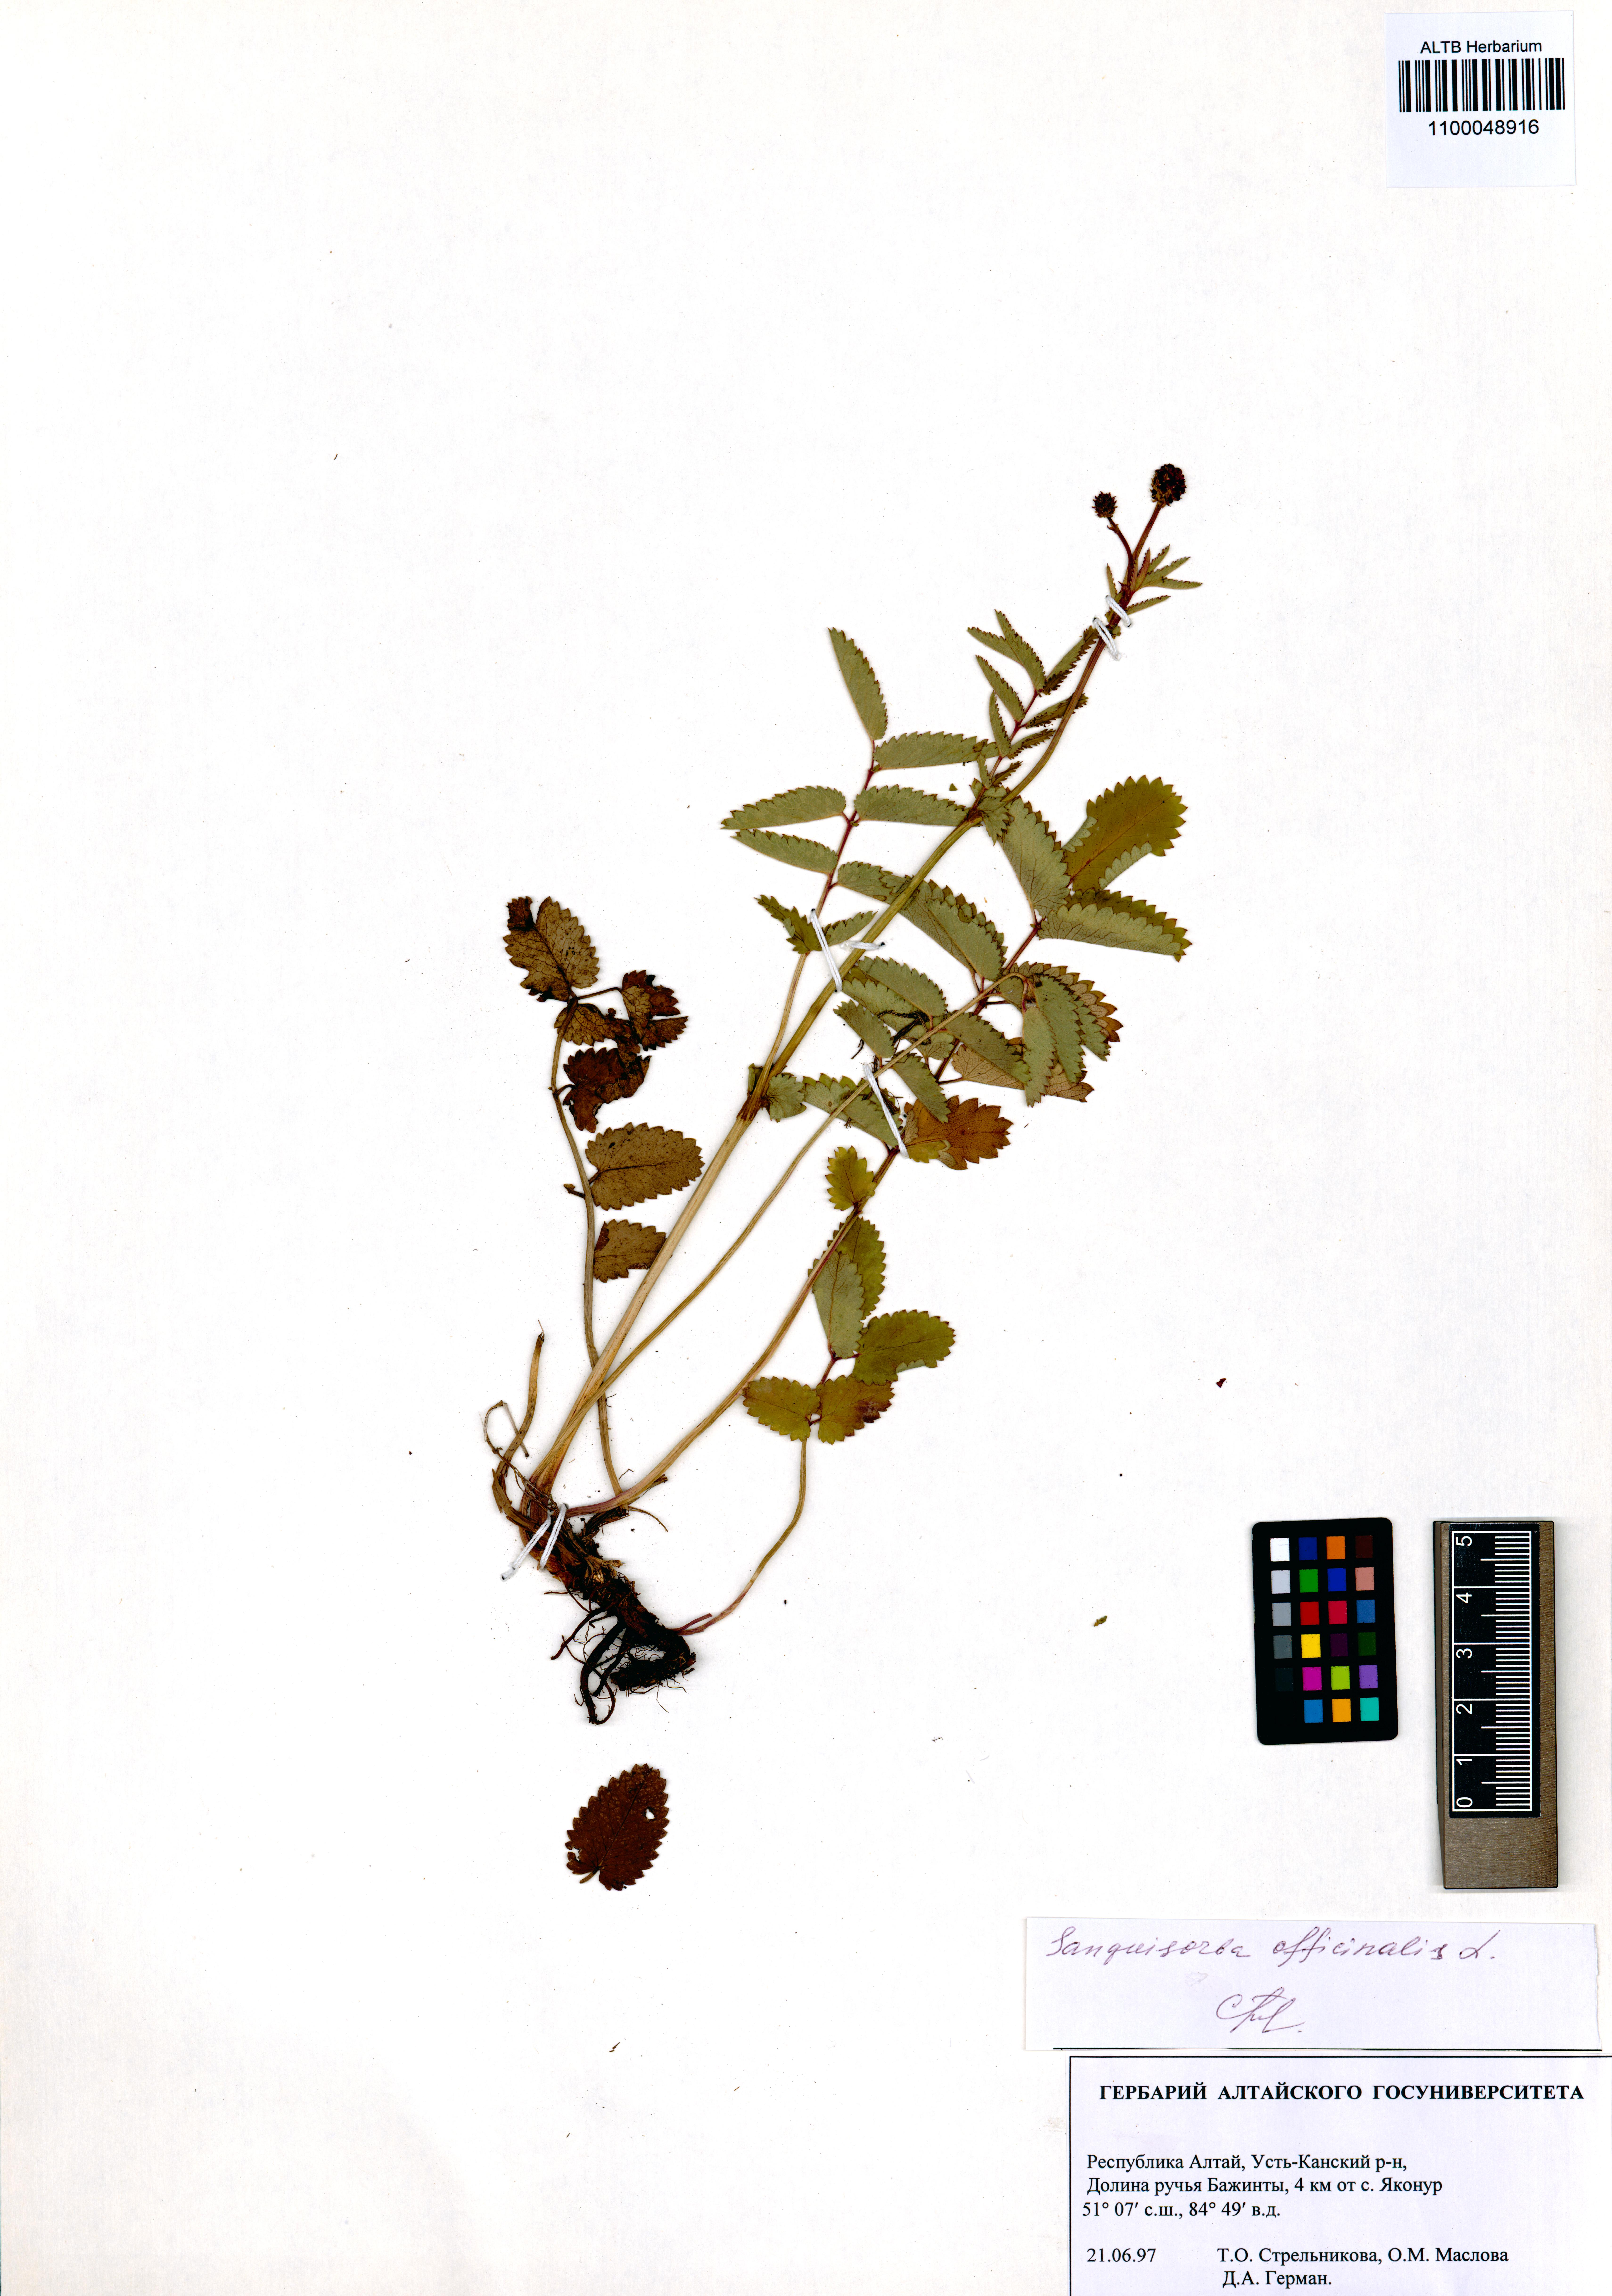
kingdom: Plantae
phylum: Tracheophyta
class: Magnoliopsida
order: Rosales
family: Rosaceae
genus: Sanguisorba
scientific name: Sanguisorba officinalis
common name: Great burnet
